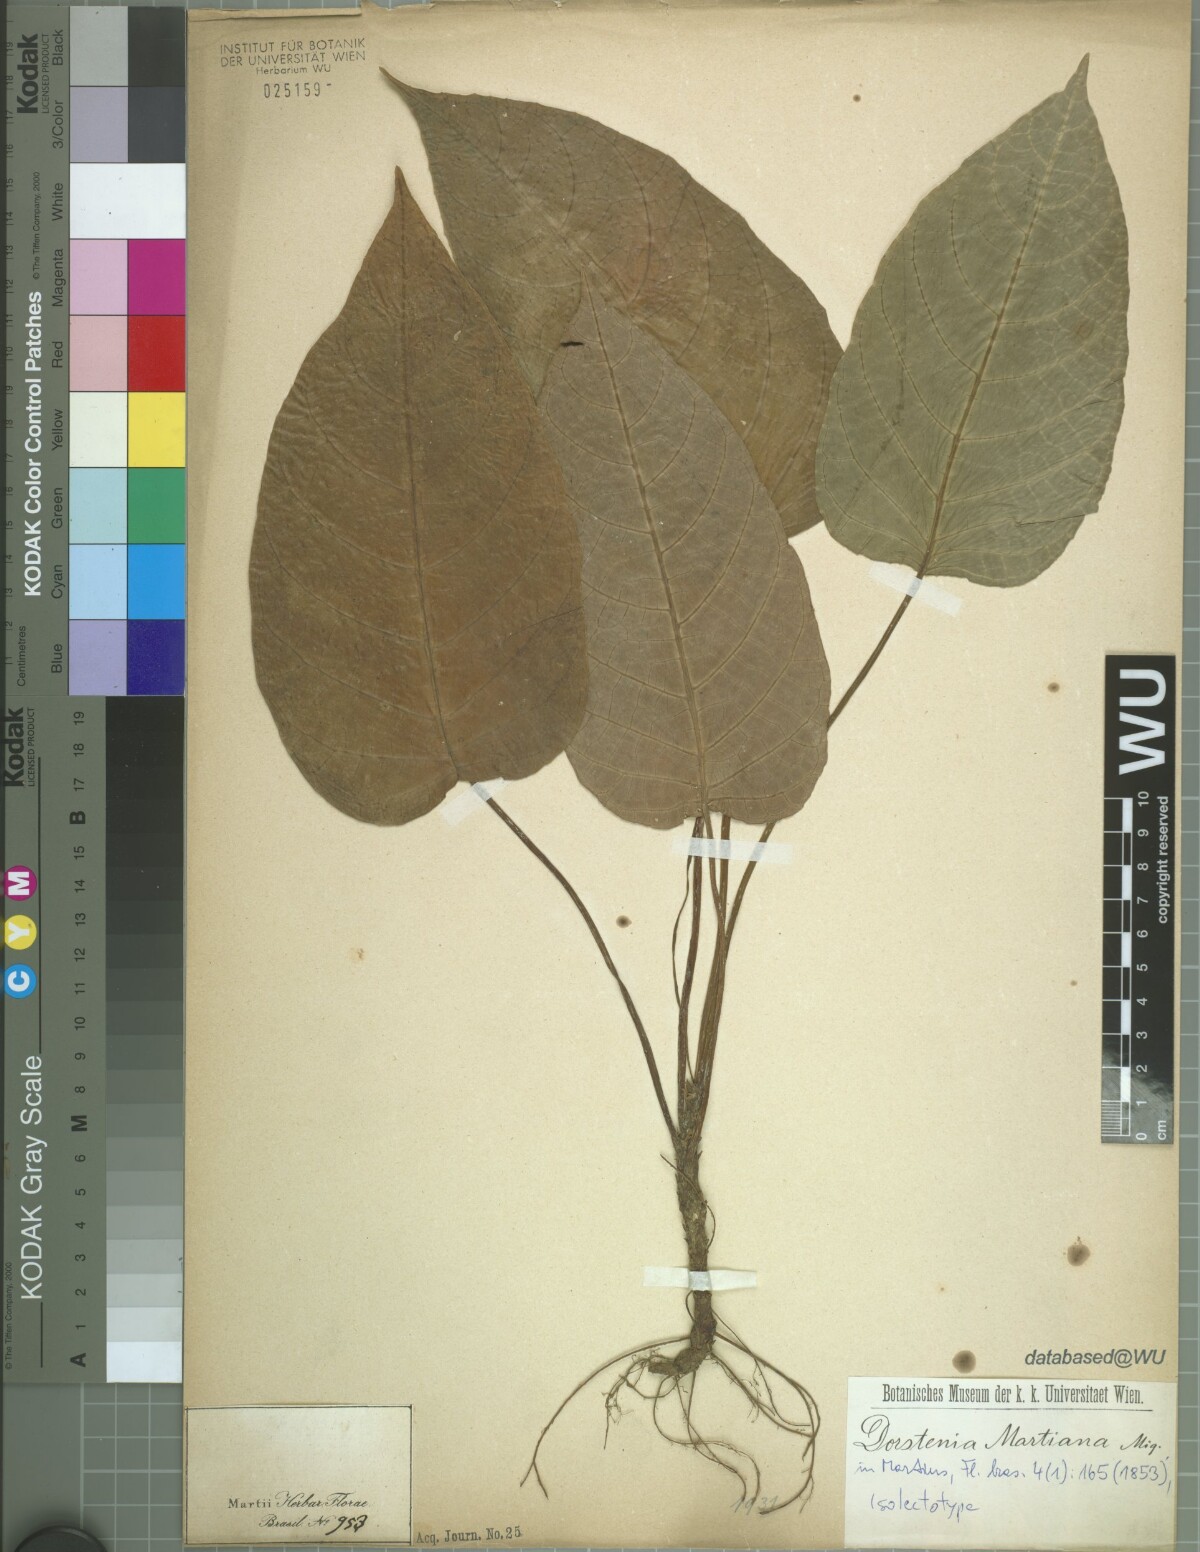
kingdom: Plantae
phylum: Tracheophyta
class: Magnoliopsida
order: Rosales
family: Moraceae
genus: Dorstenia
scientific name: Dorstenia bahiensis
